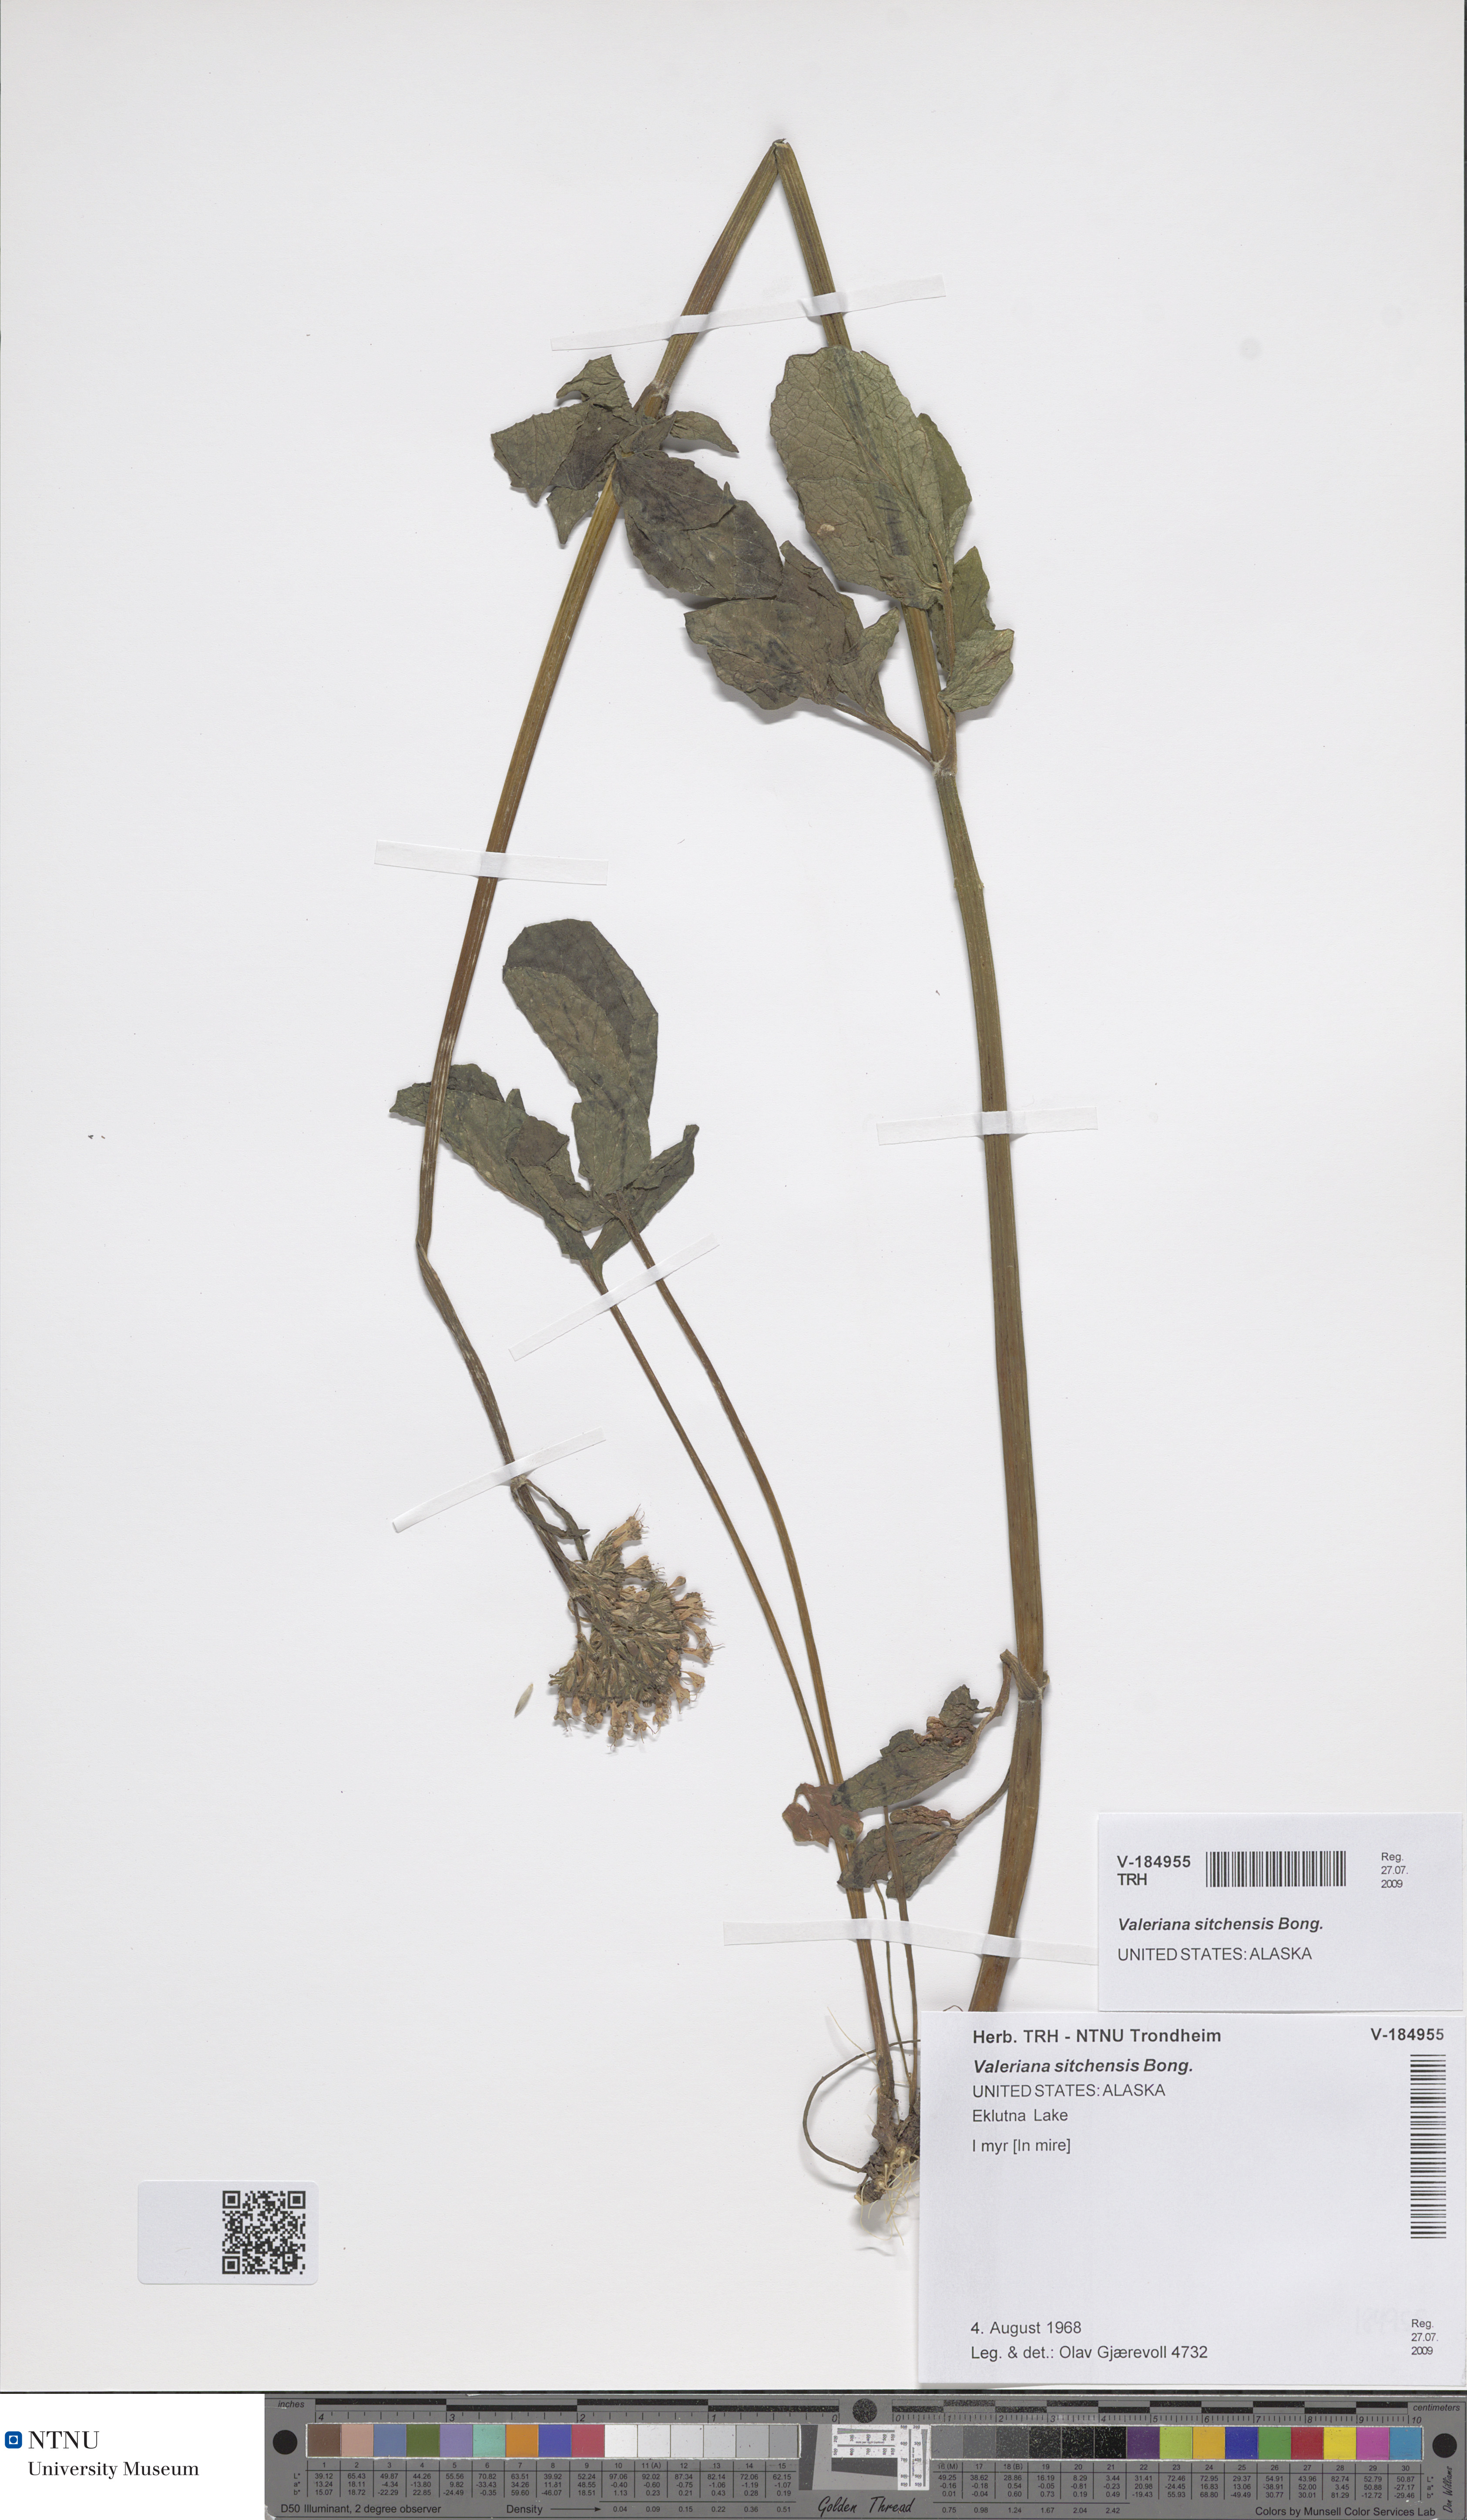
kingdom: Plantae
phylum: Tracheophyta
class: Magnoliopsida
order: Dipsacales
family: Caprifoliaceae
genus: Valeriana
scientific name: Valeriana sitchensis
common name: Pacific valerian
